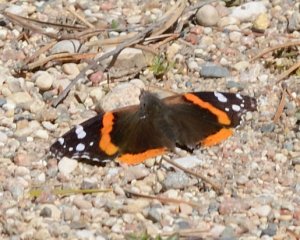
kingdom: Animalia
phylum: Arthropoda
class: Insecta
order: Lepidoptera
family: Nymphalidae
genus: Vanessa
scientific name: Vanessa atalanta
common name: Red Admiral
